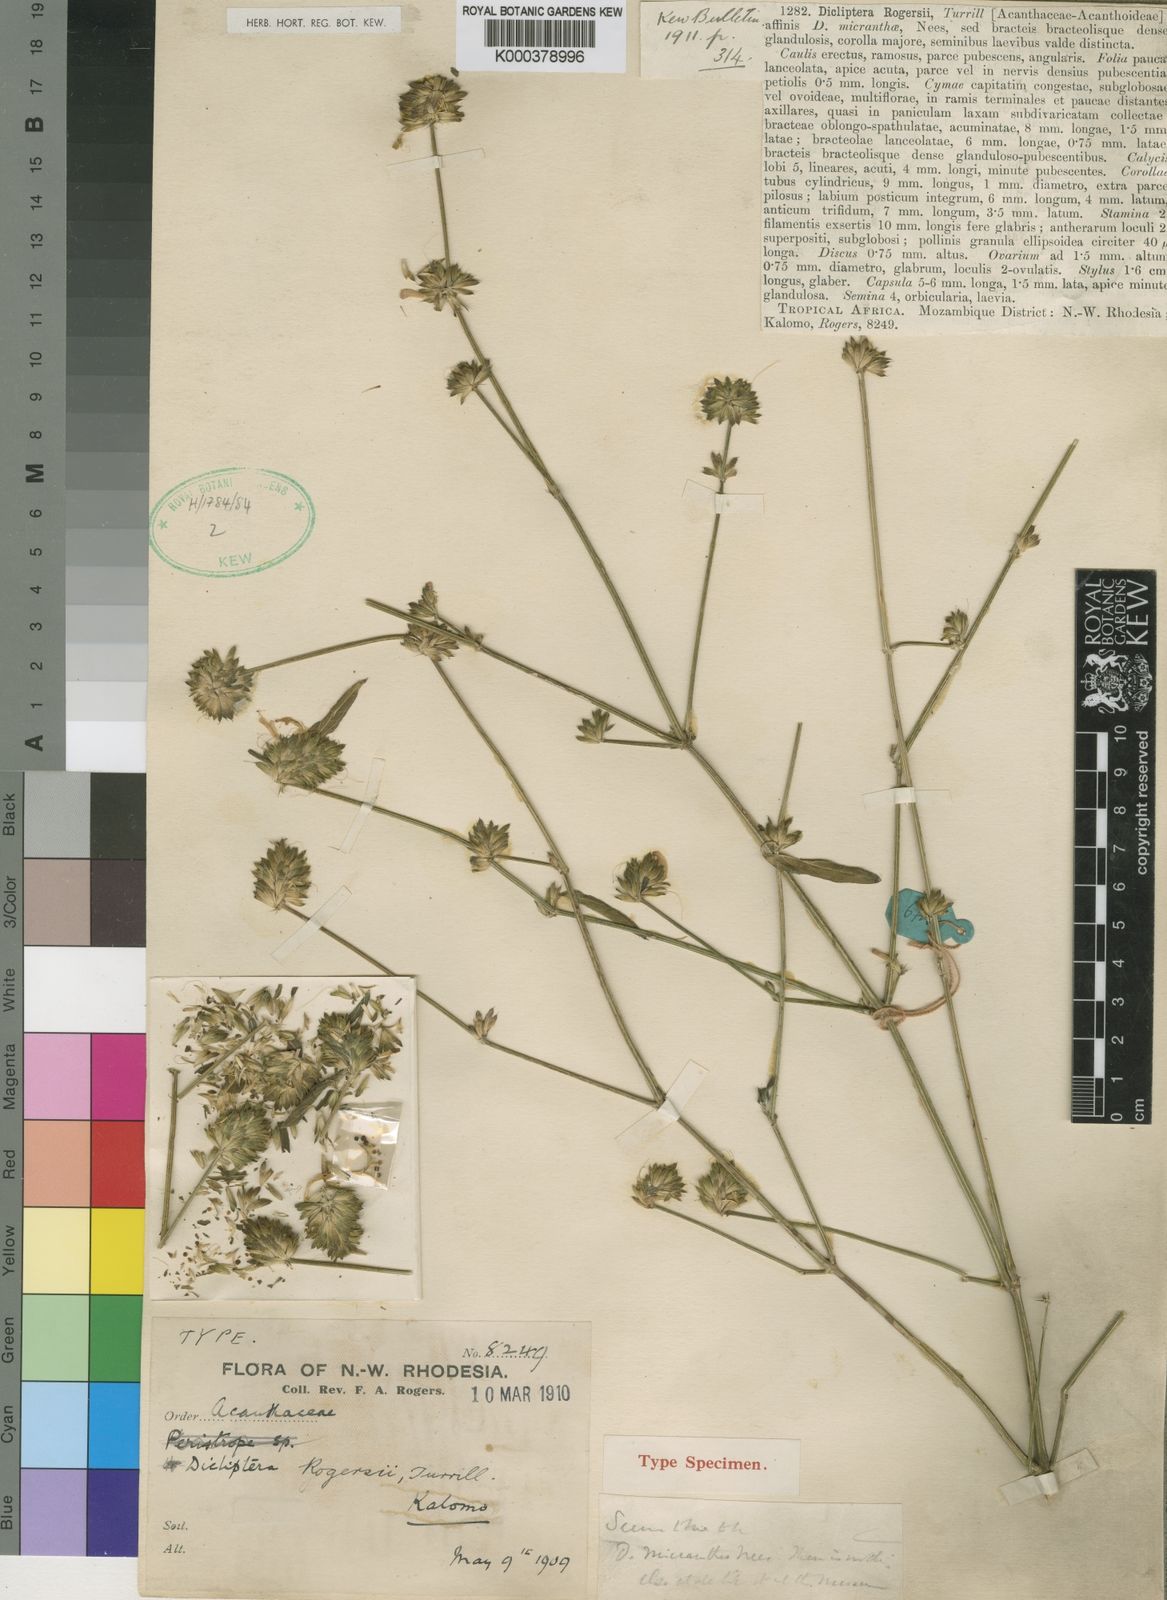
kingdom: Plantae
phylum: Tracheophyta
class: Magnoliopsida
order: Lamiales
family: Acanthaceae
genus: Dicliptera
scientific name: Dicliptera carvalhoi
